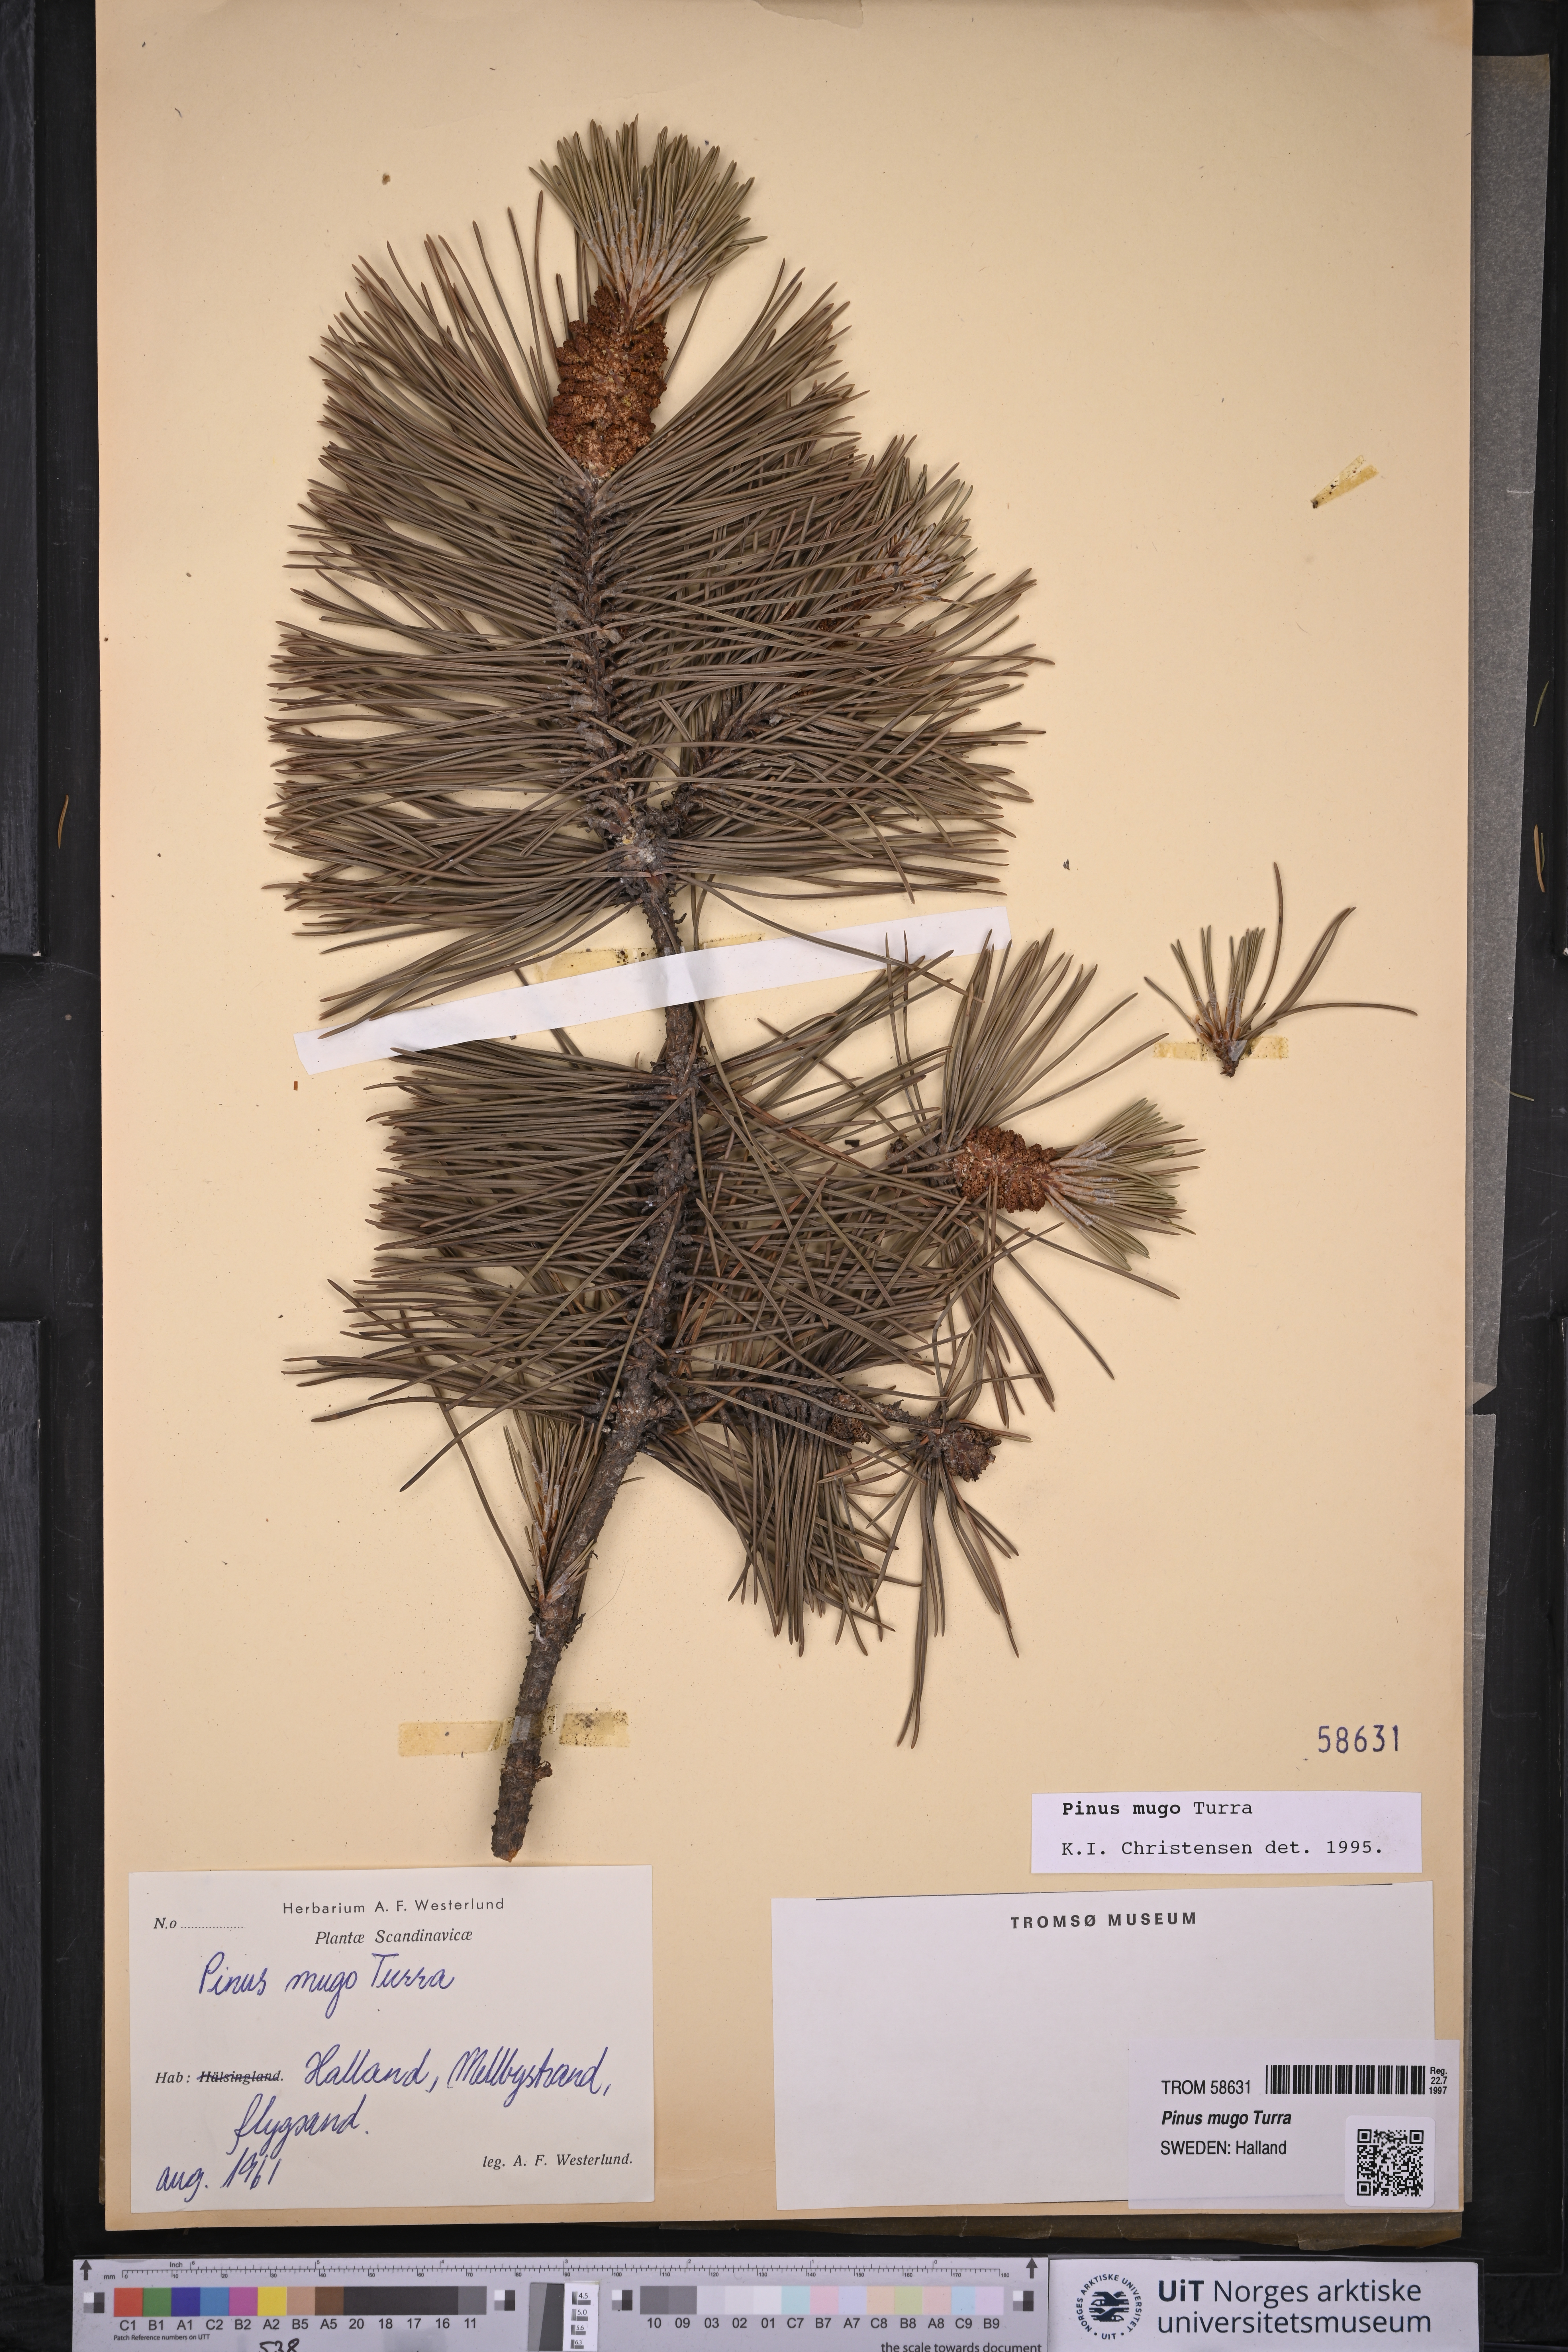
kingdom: Plantae
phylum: Tracheophyta
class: Pinopsida
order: Pinales
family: Pinaceae
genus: Pinus
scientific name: Pinus mugo
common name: Mugo pine
